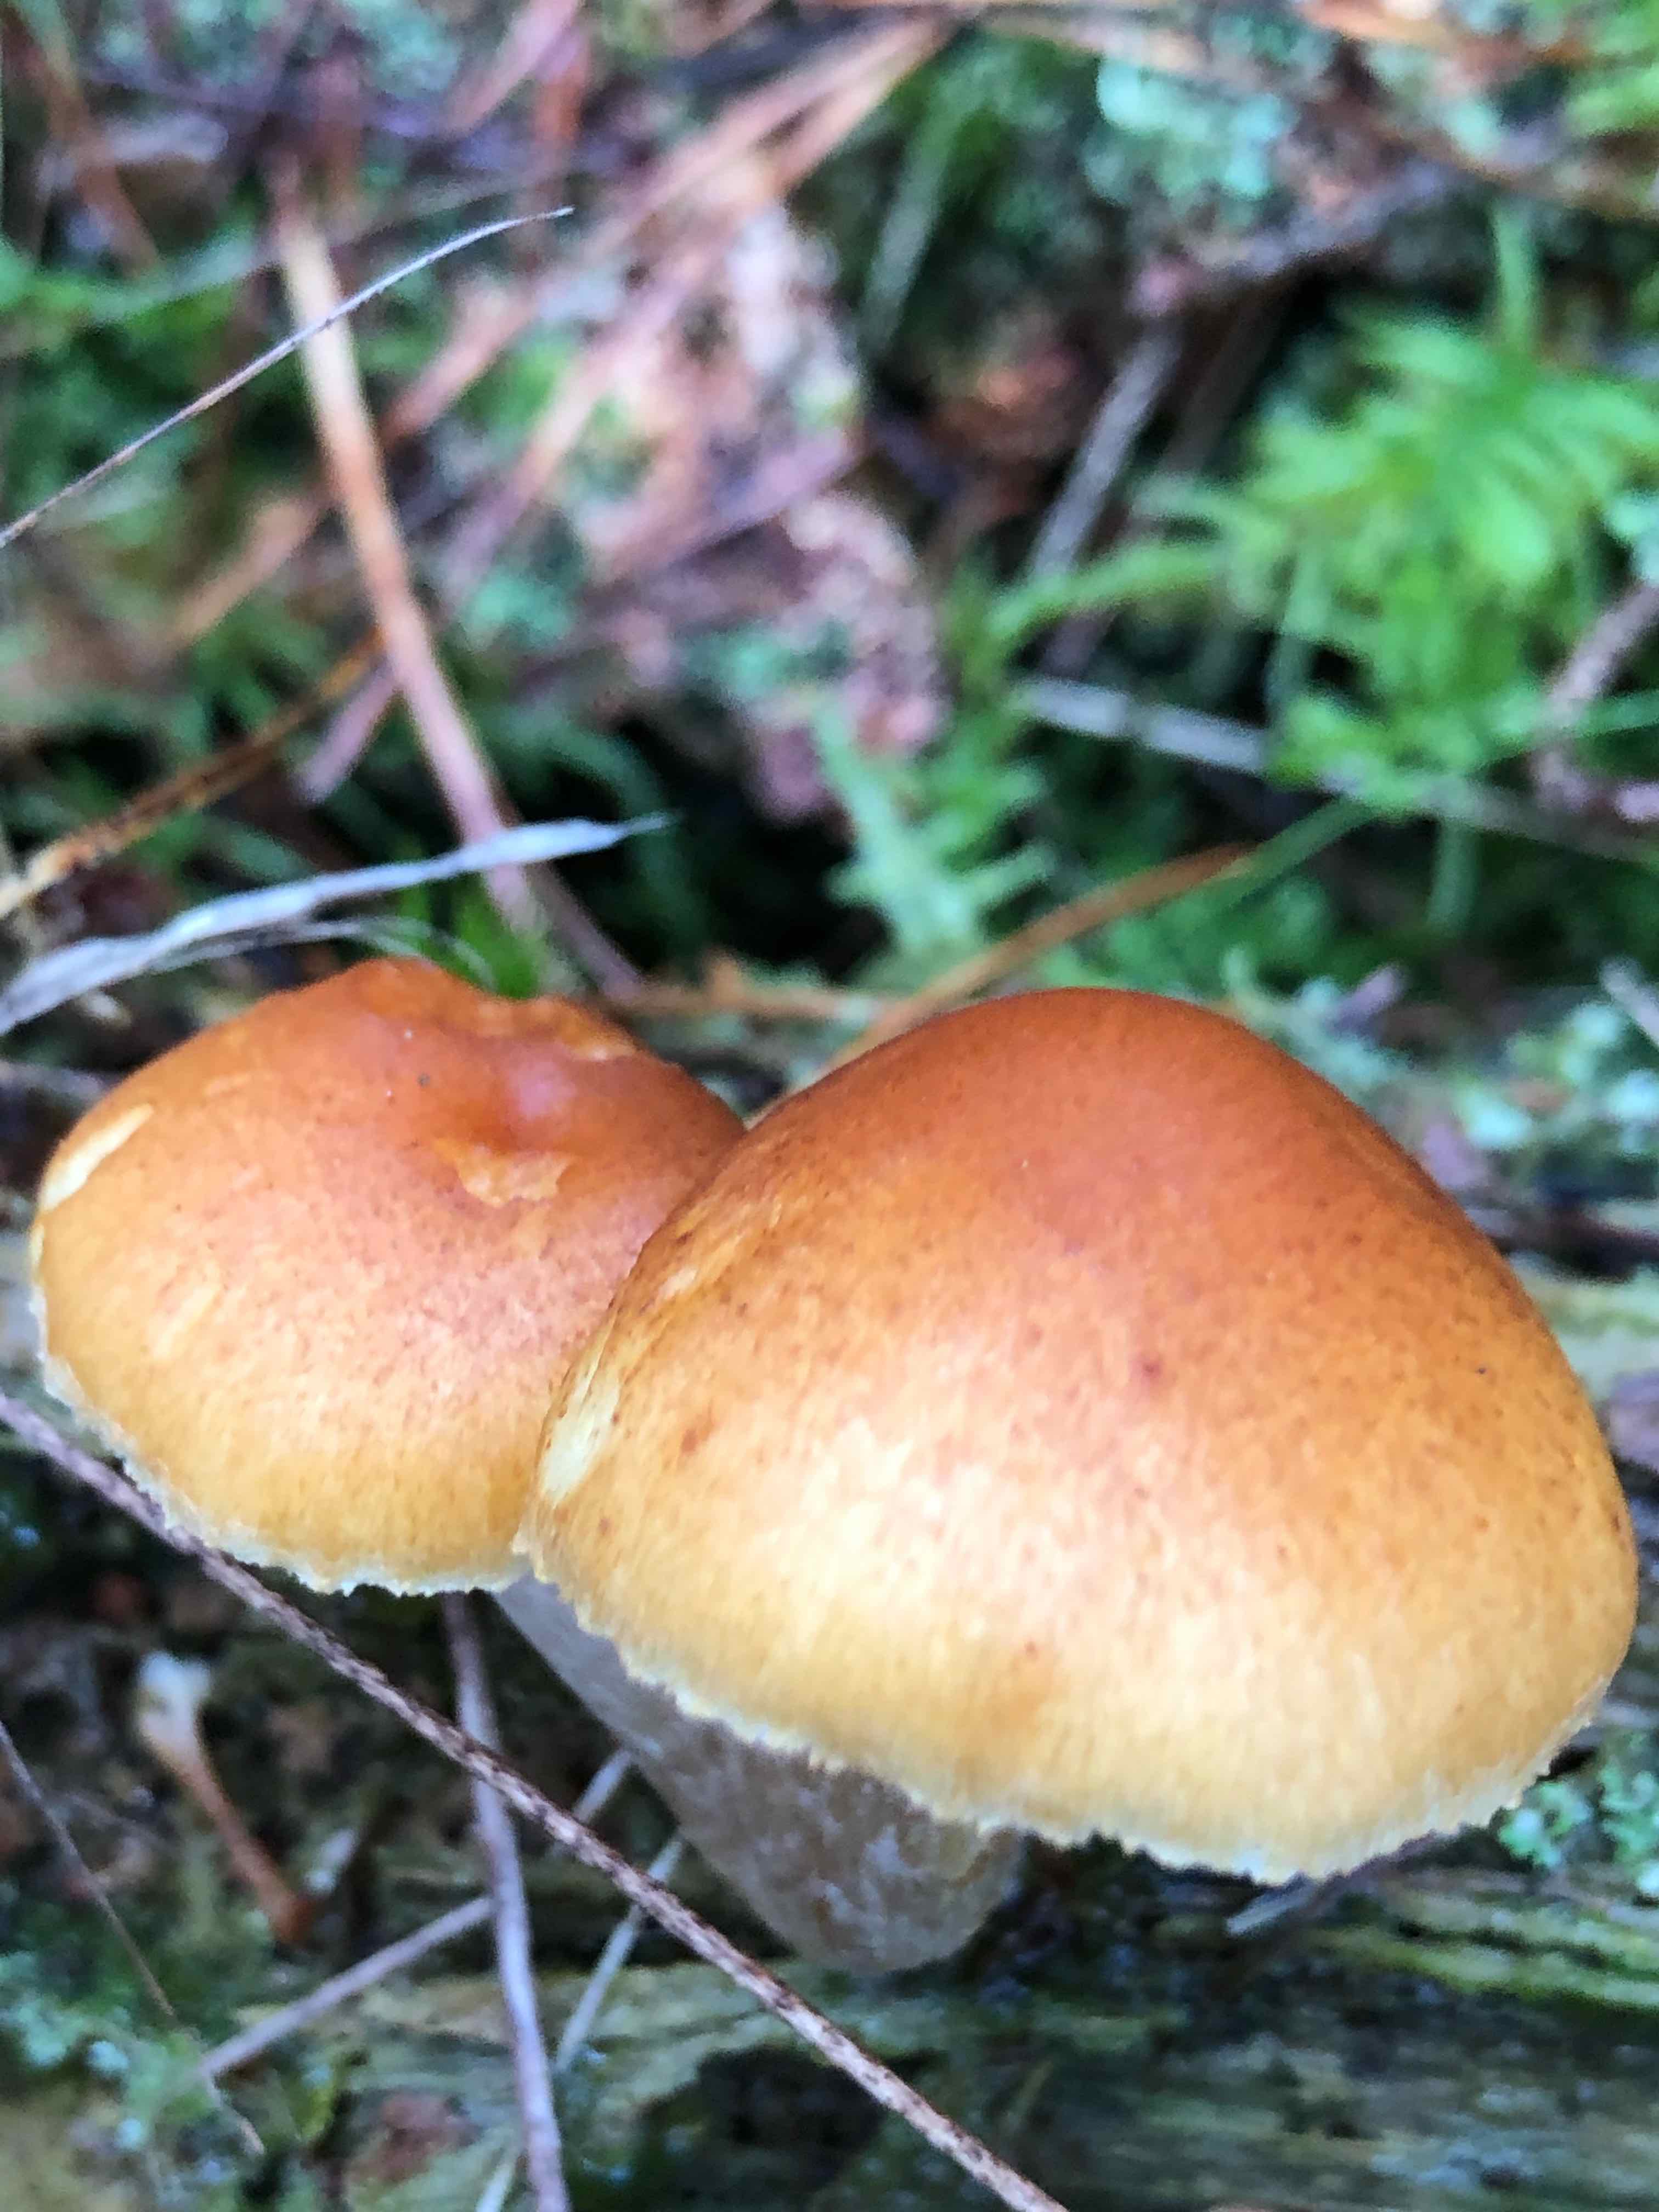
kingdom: Fungi
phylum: Basidiomycota
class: Agaricomycetes
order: Agaricales
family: Hymenogastraceae
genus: Gymnopilus
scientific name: Gymnopilus penetrans
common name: plettet flammehat
